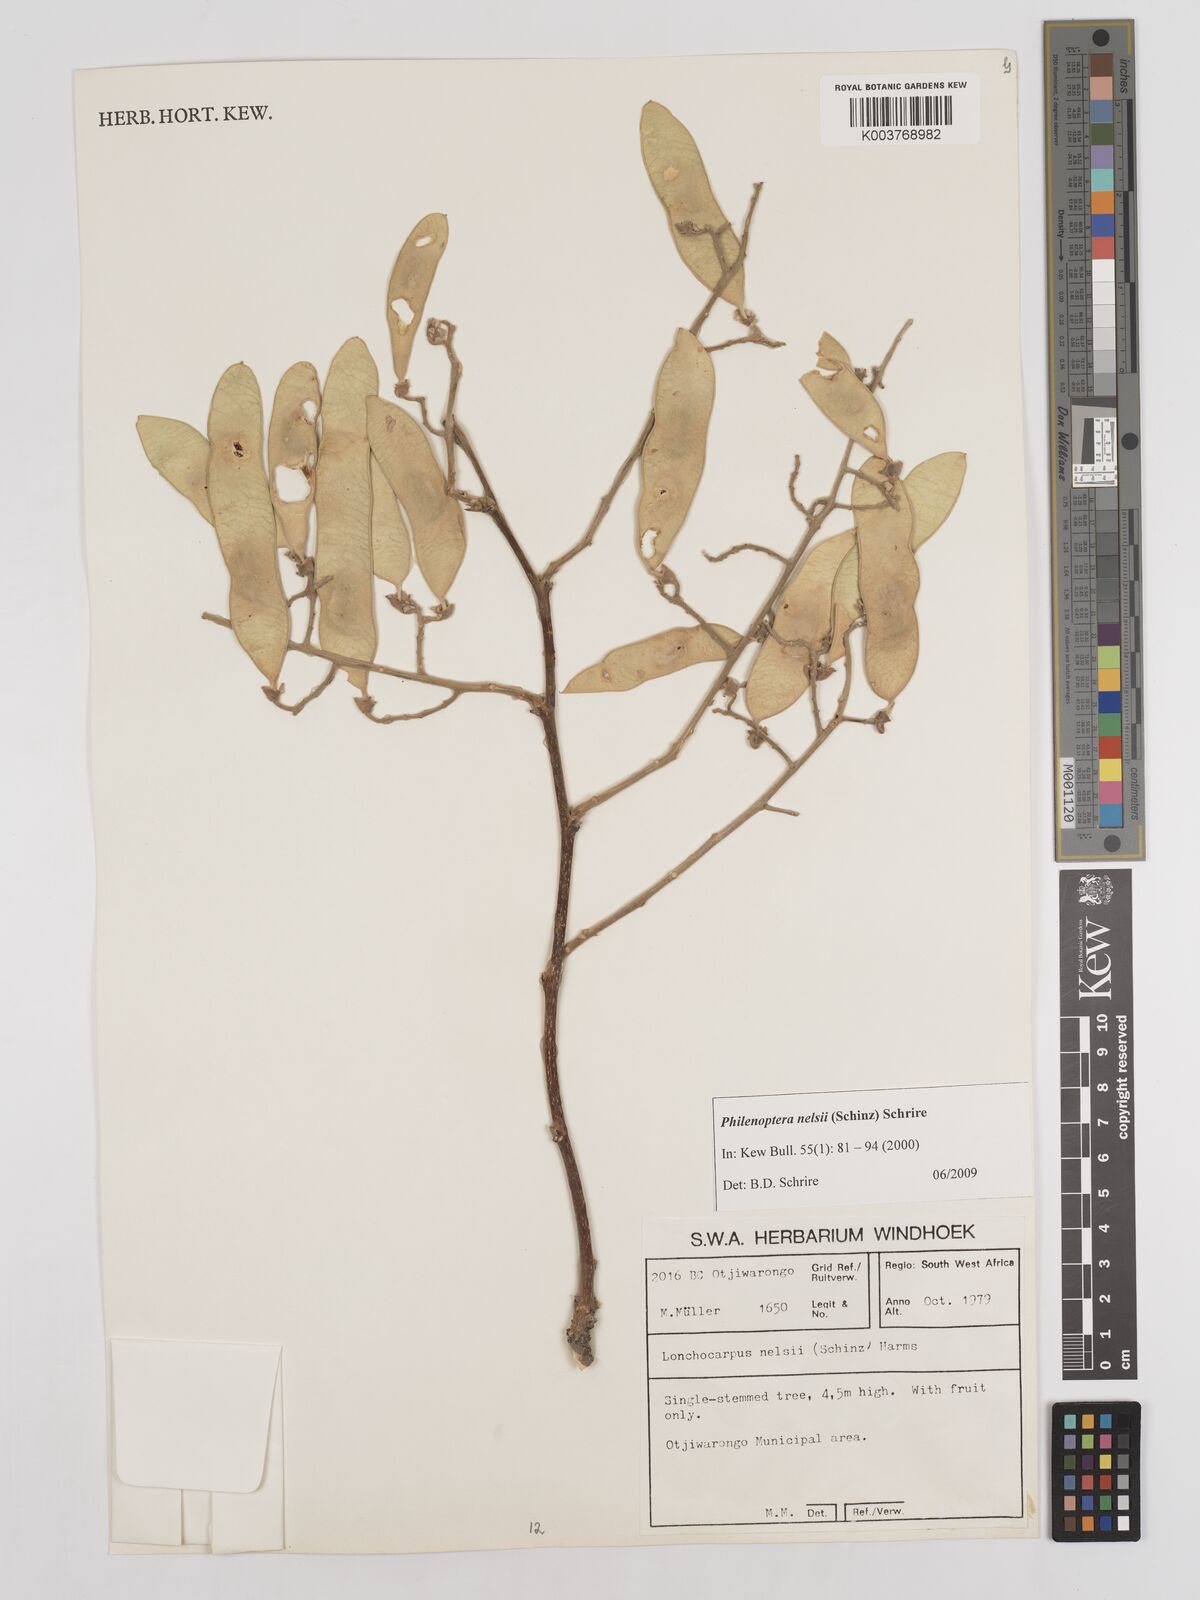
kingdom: Plantae
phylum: Tracheophyta
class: Magnoliopsida
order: Fabales
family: Fabaceae
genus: Philenoptera
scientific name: Philenoptera nelsii
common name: Kalahari apple-leaf
